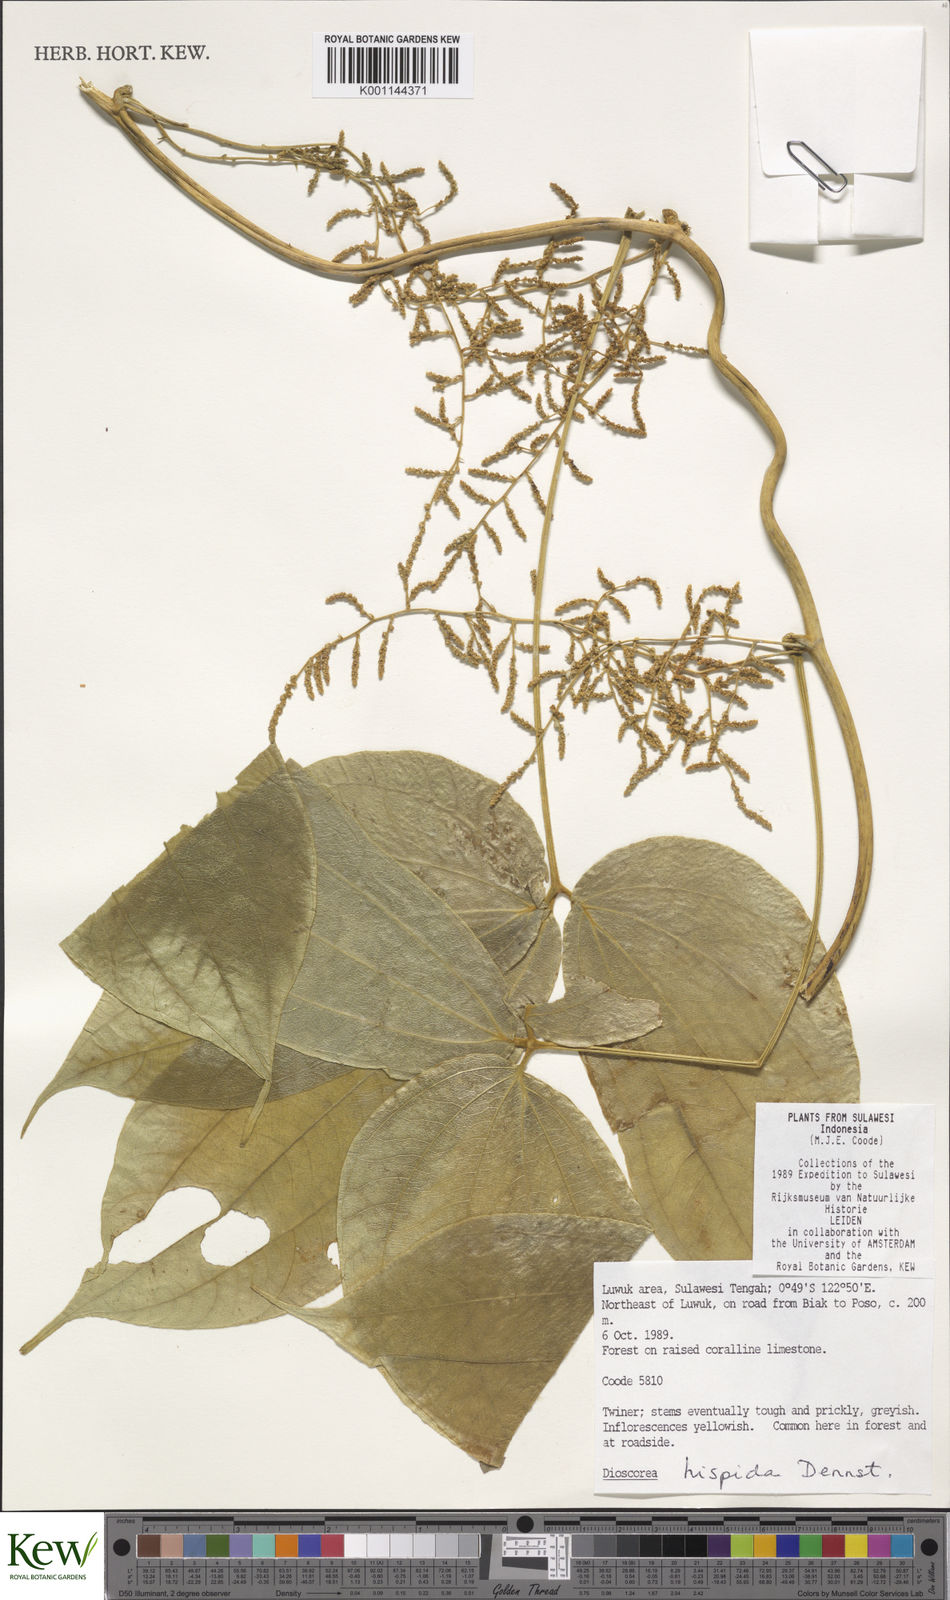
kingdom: Plantae
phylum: Tracheophyta
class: Liliopsida
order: Dioscoreales
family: Dioscoreaceae
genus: Dioscorea
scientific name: Dioscorea hispida
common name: Asiatic bitter yam
